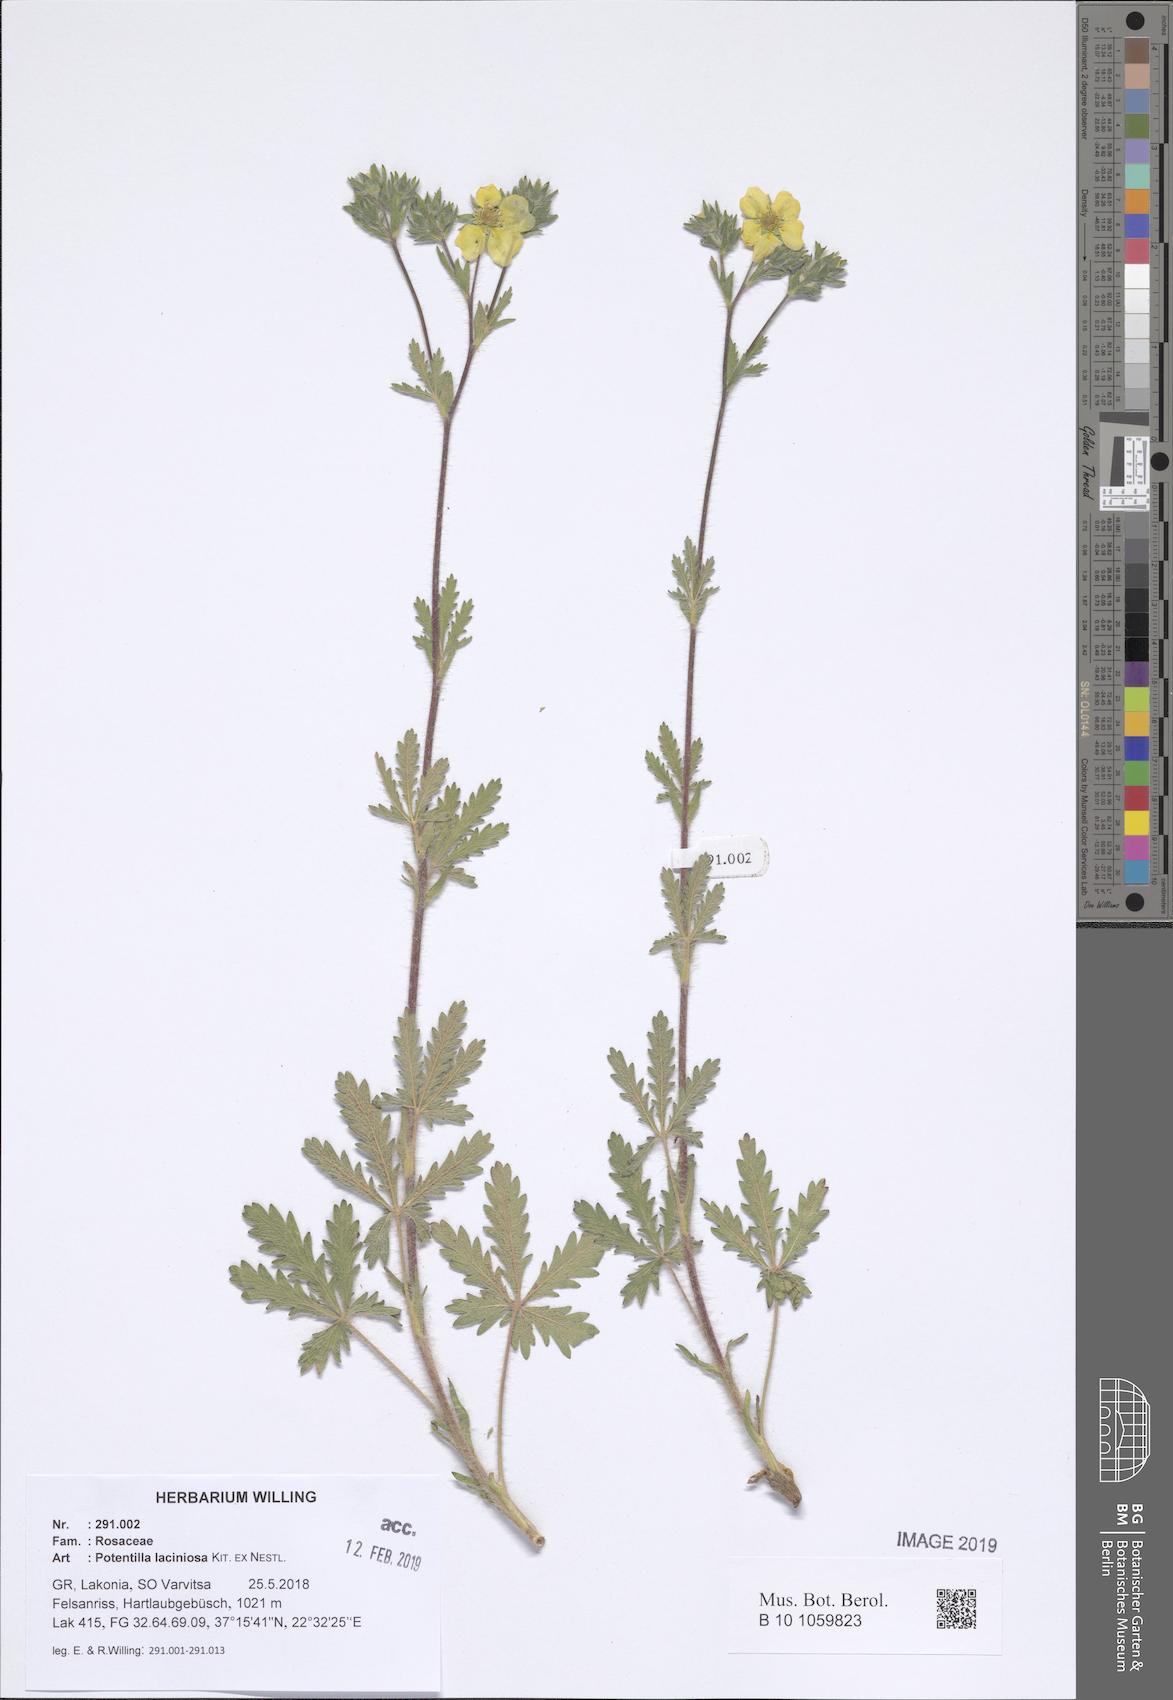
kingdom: Plantae
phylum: Tracheophyta
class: Magnoliopsida
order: Rosales
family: Rosaceae
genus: Potentilla
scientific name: Potentilla recta
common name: Sulphur cinquefoil
